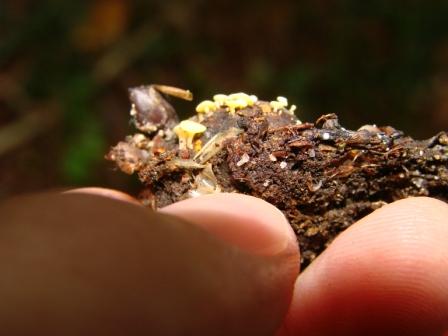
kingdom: Fungi
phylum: Ascomycota
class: Leotiomycetes
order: Helotiales
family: Helotiaceae
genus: Hymenoscyphus
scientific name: Hymenoscyphus fructigenus
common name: frugt-stilkskive
